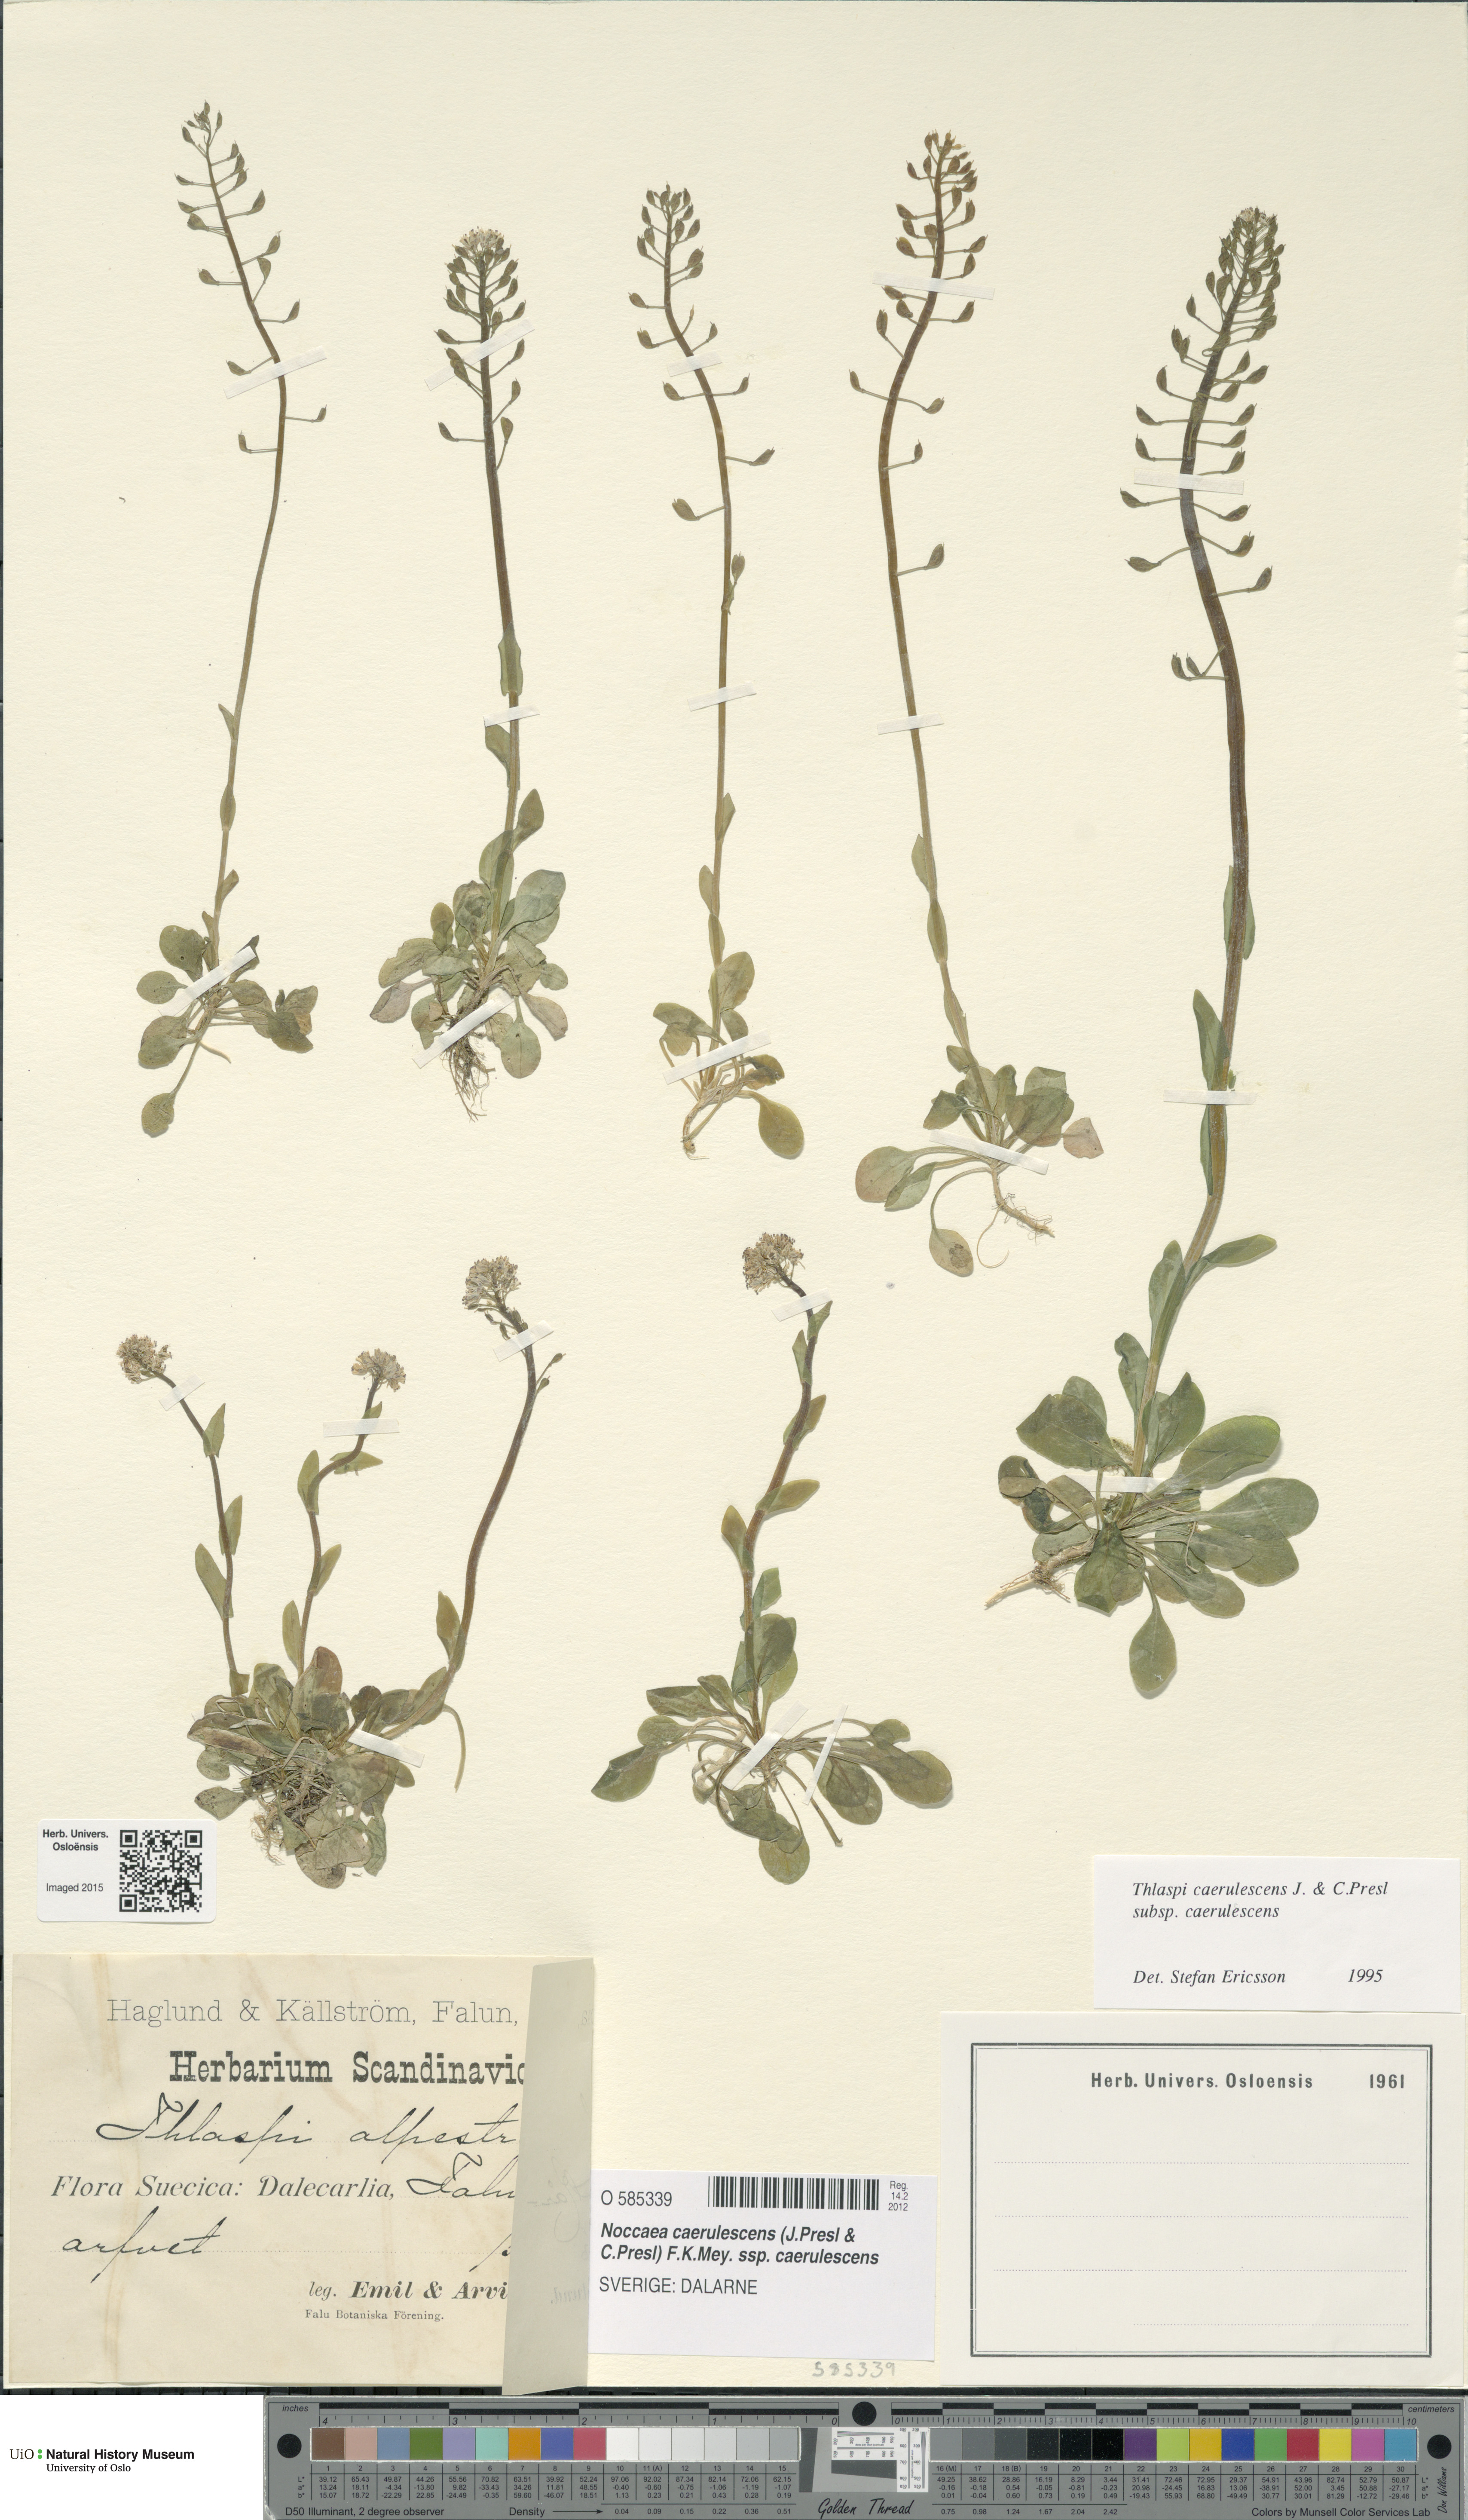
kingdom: Plantae
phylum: Tracheophyta
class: Magnoliopsida
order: Brassicales
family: Brassicaceae
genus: Noccaea
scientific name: Noccaea caerulescens
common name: Alpine pennycress
